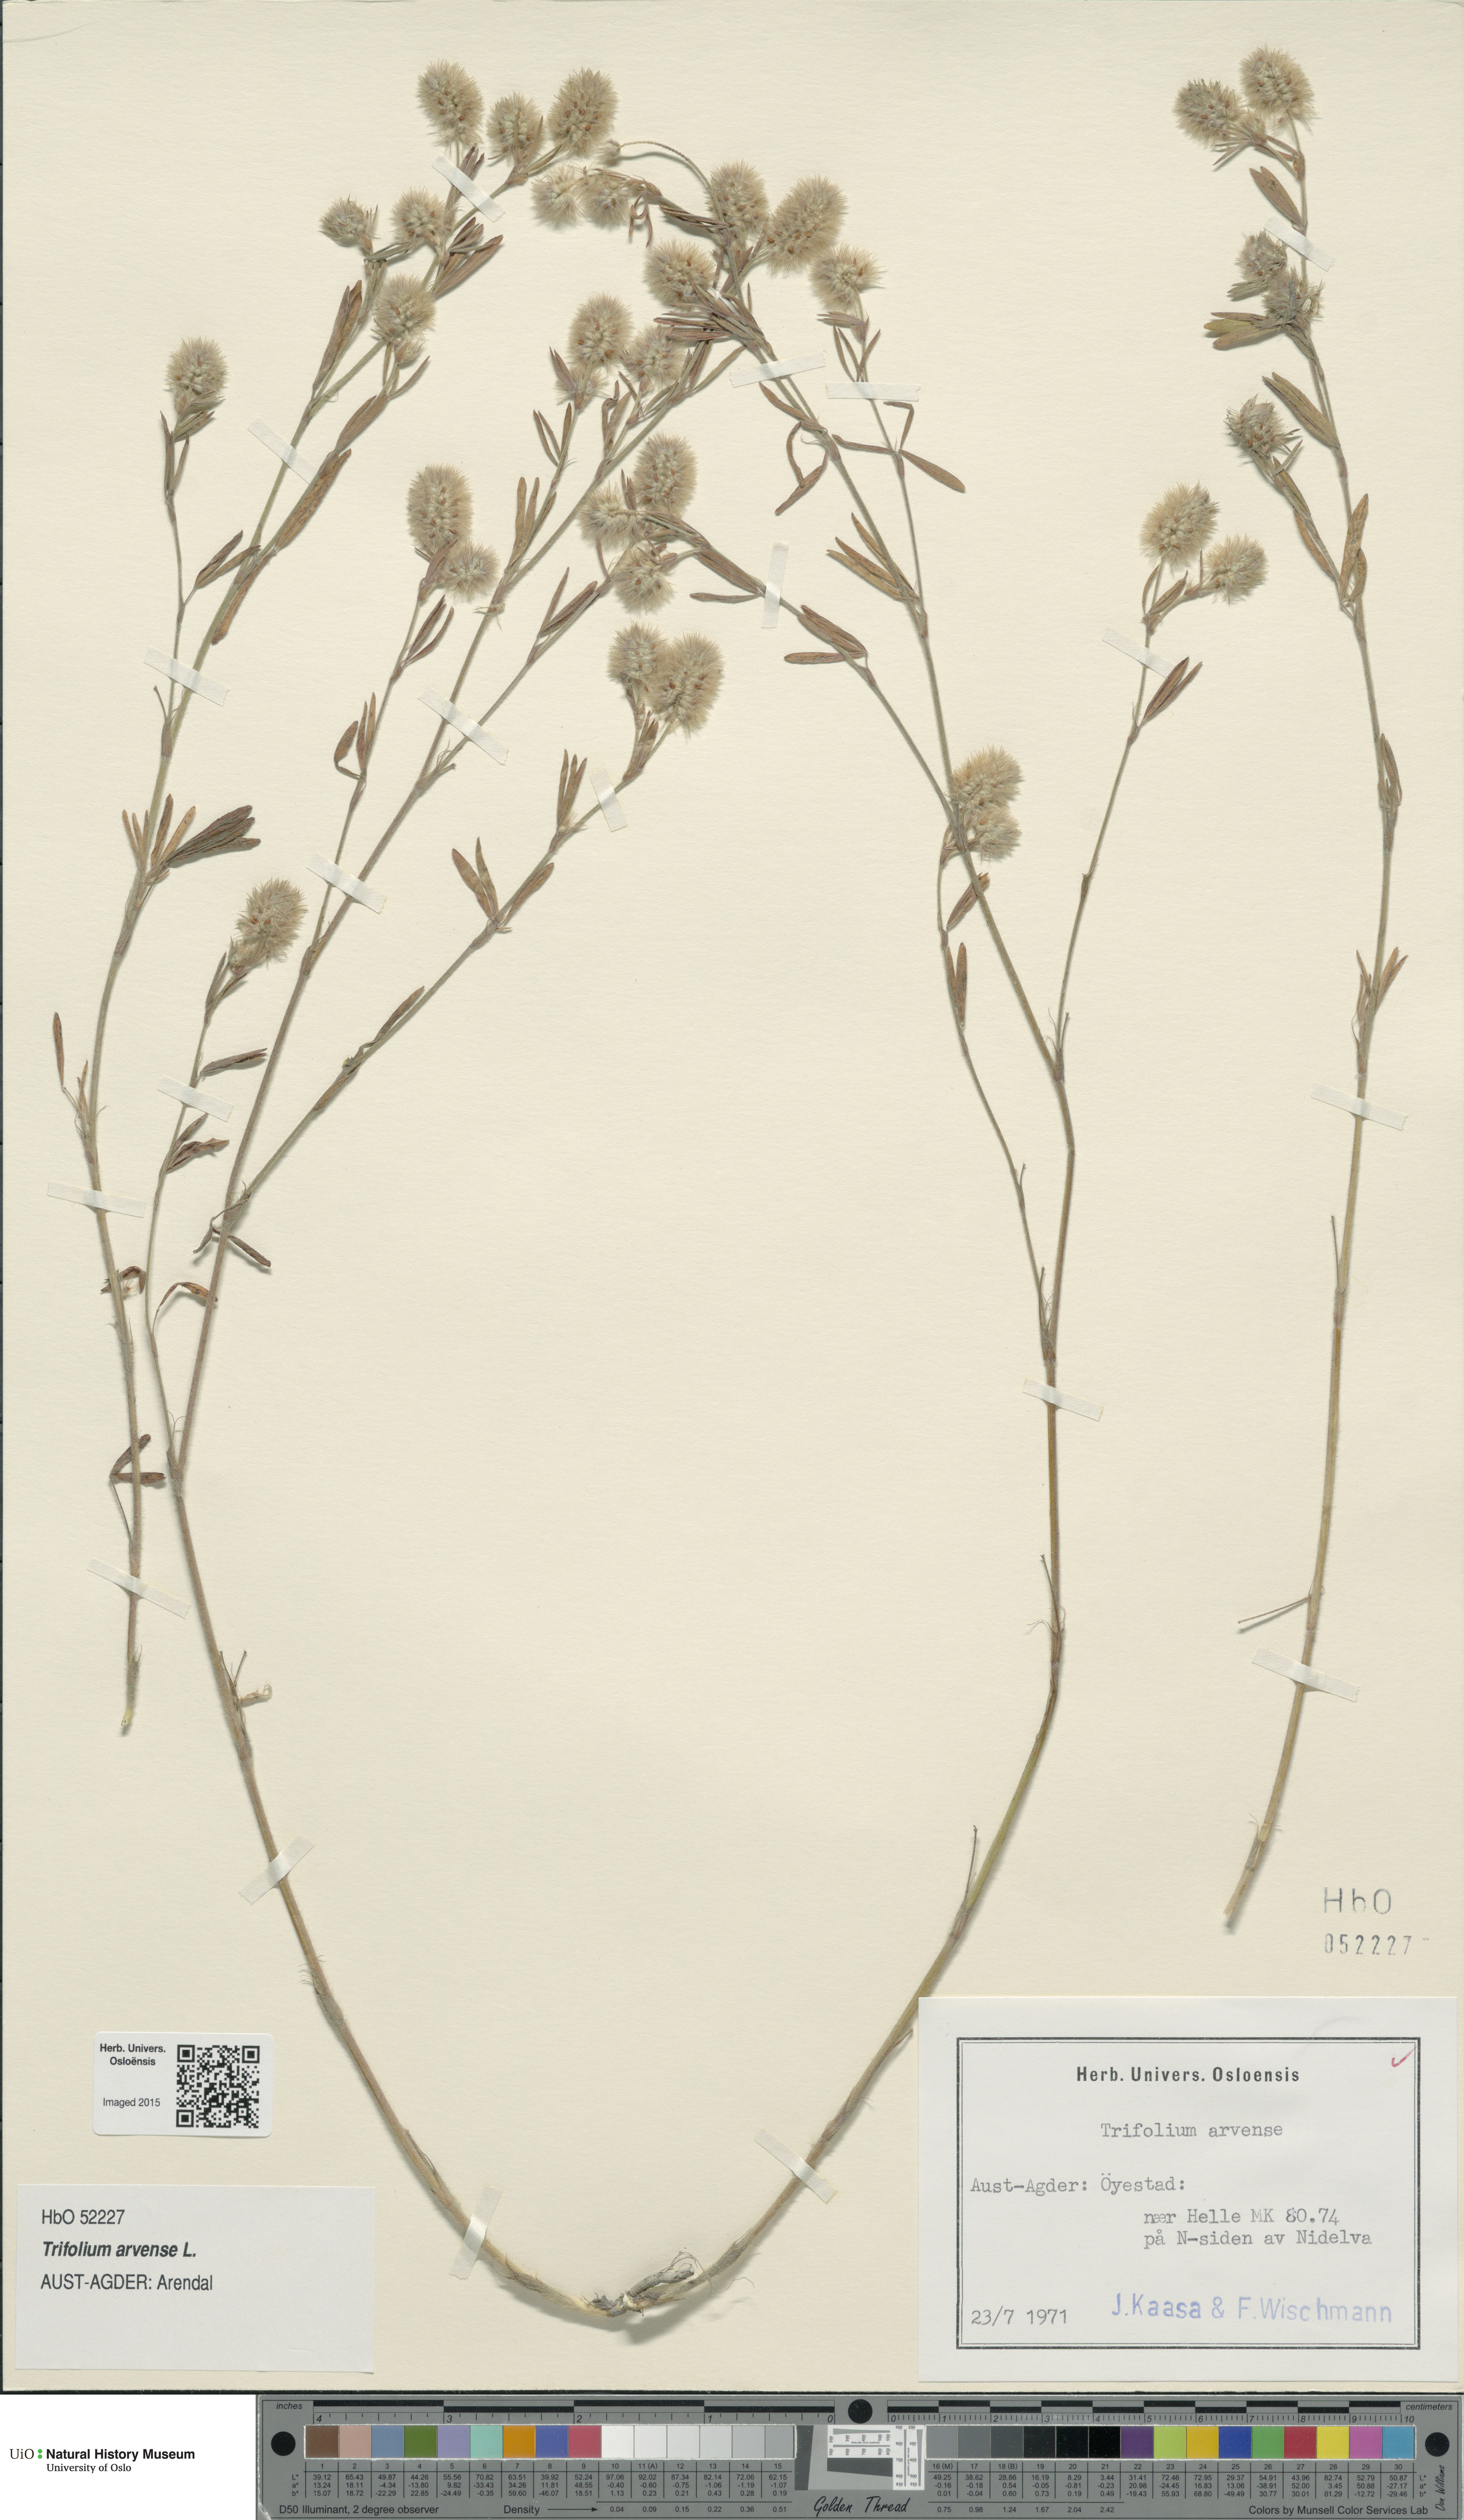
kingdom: Plantae
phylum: Tracheophyta
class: Magnoliopsida
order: Fabales
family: Fabaceae
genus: Trifolium
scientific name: Trifolium arvense
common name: Hare's-foot clover
